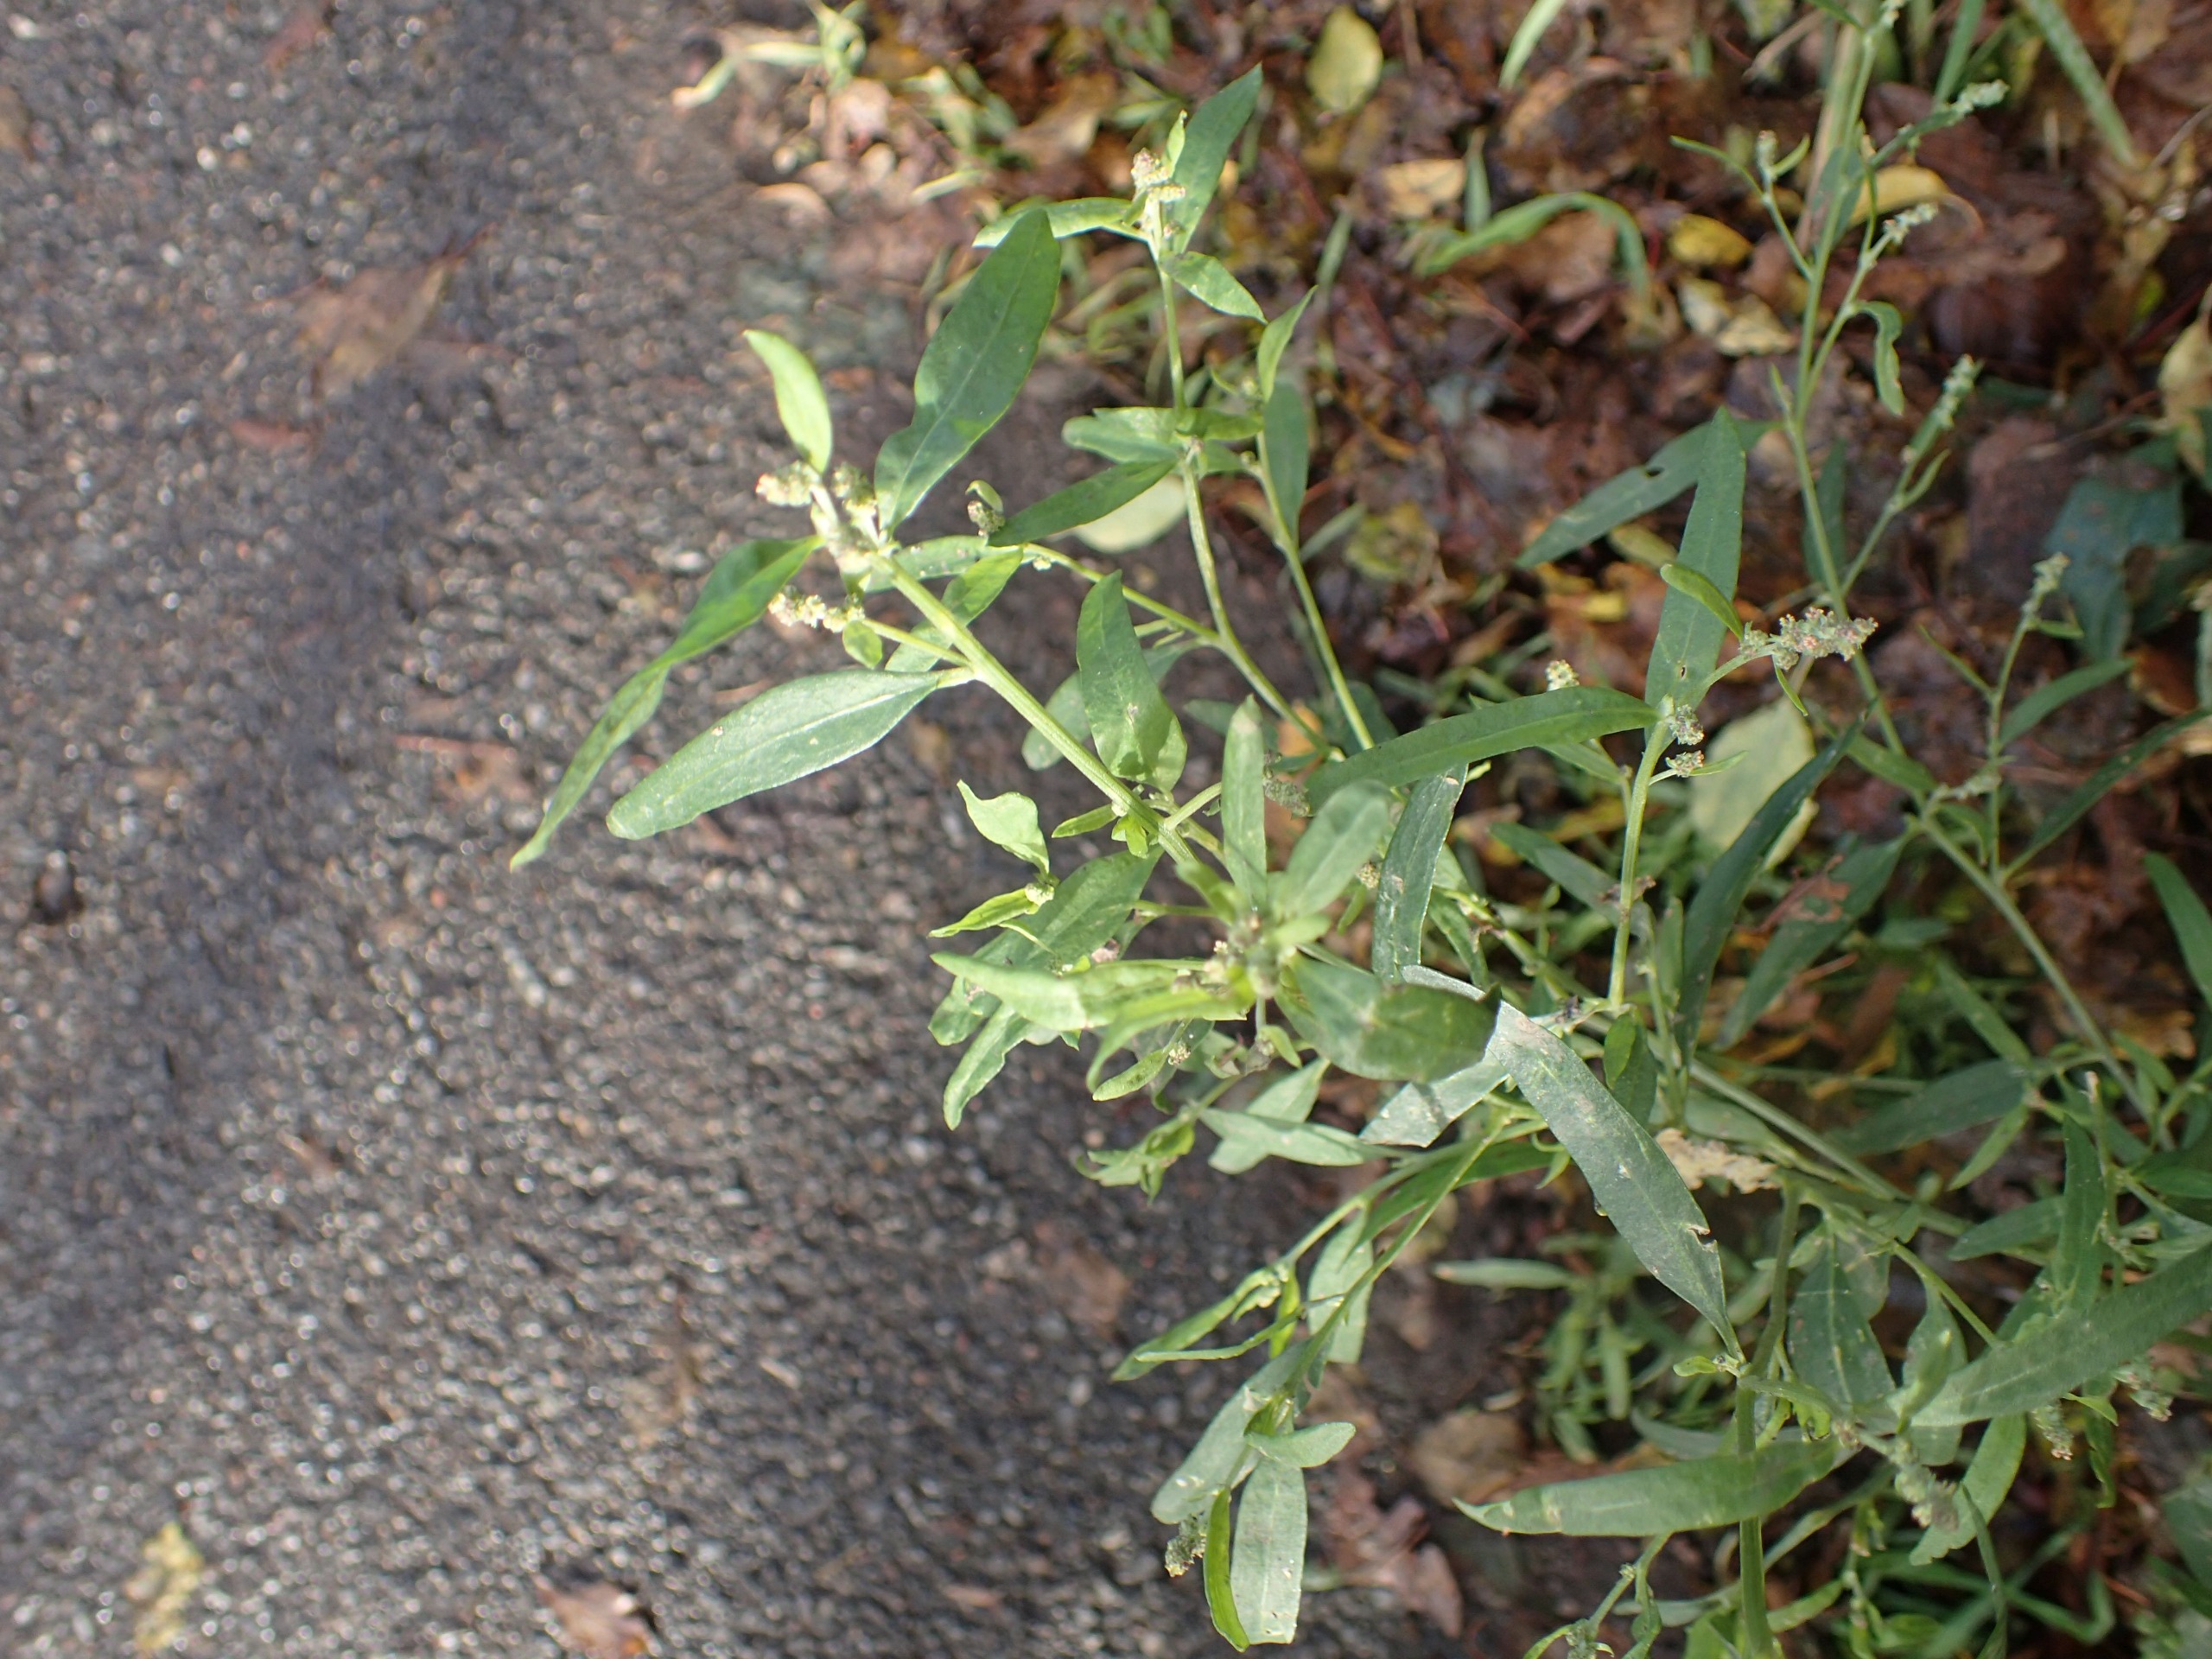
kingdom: Plantae
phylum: Tracheophyta
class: Magnoliopsida
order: Caryophyllales
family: Amaranthaceae
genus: Atriplex
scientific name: Atriplex patula
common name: Svine-mælde
